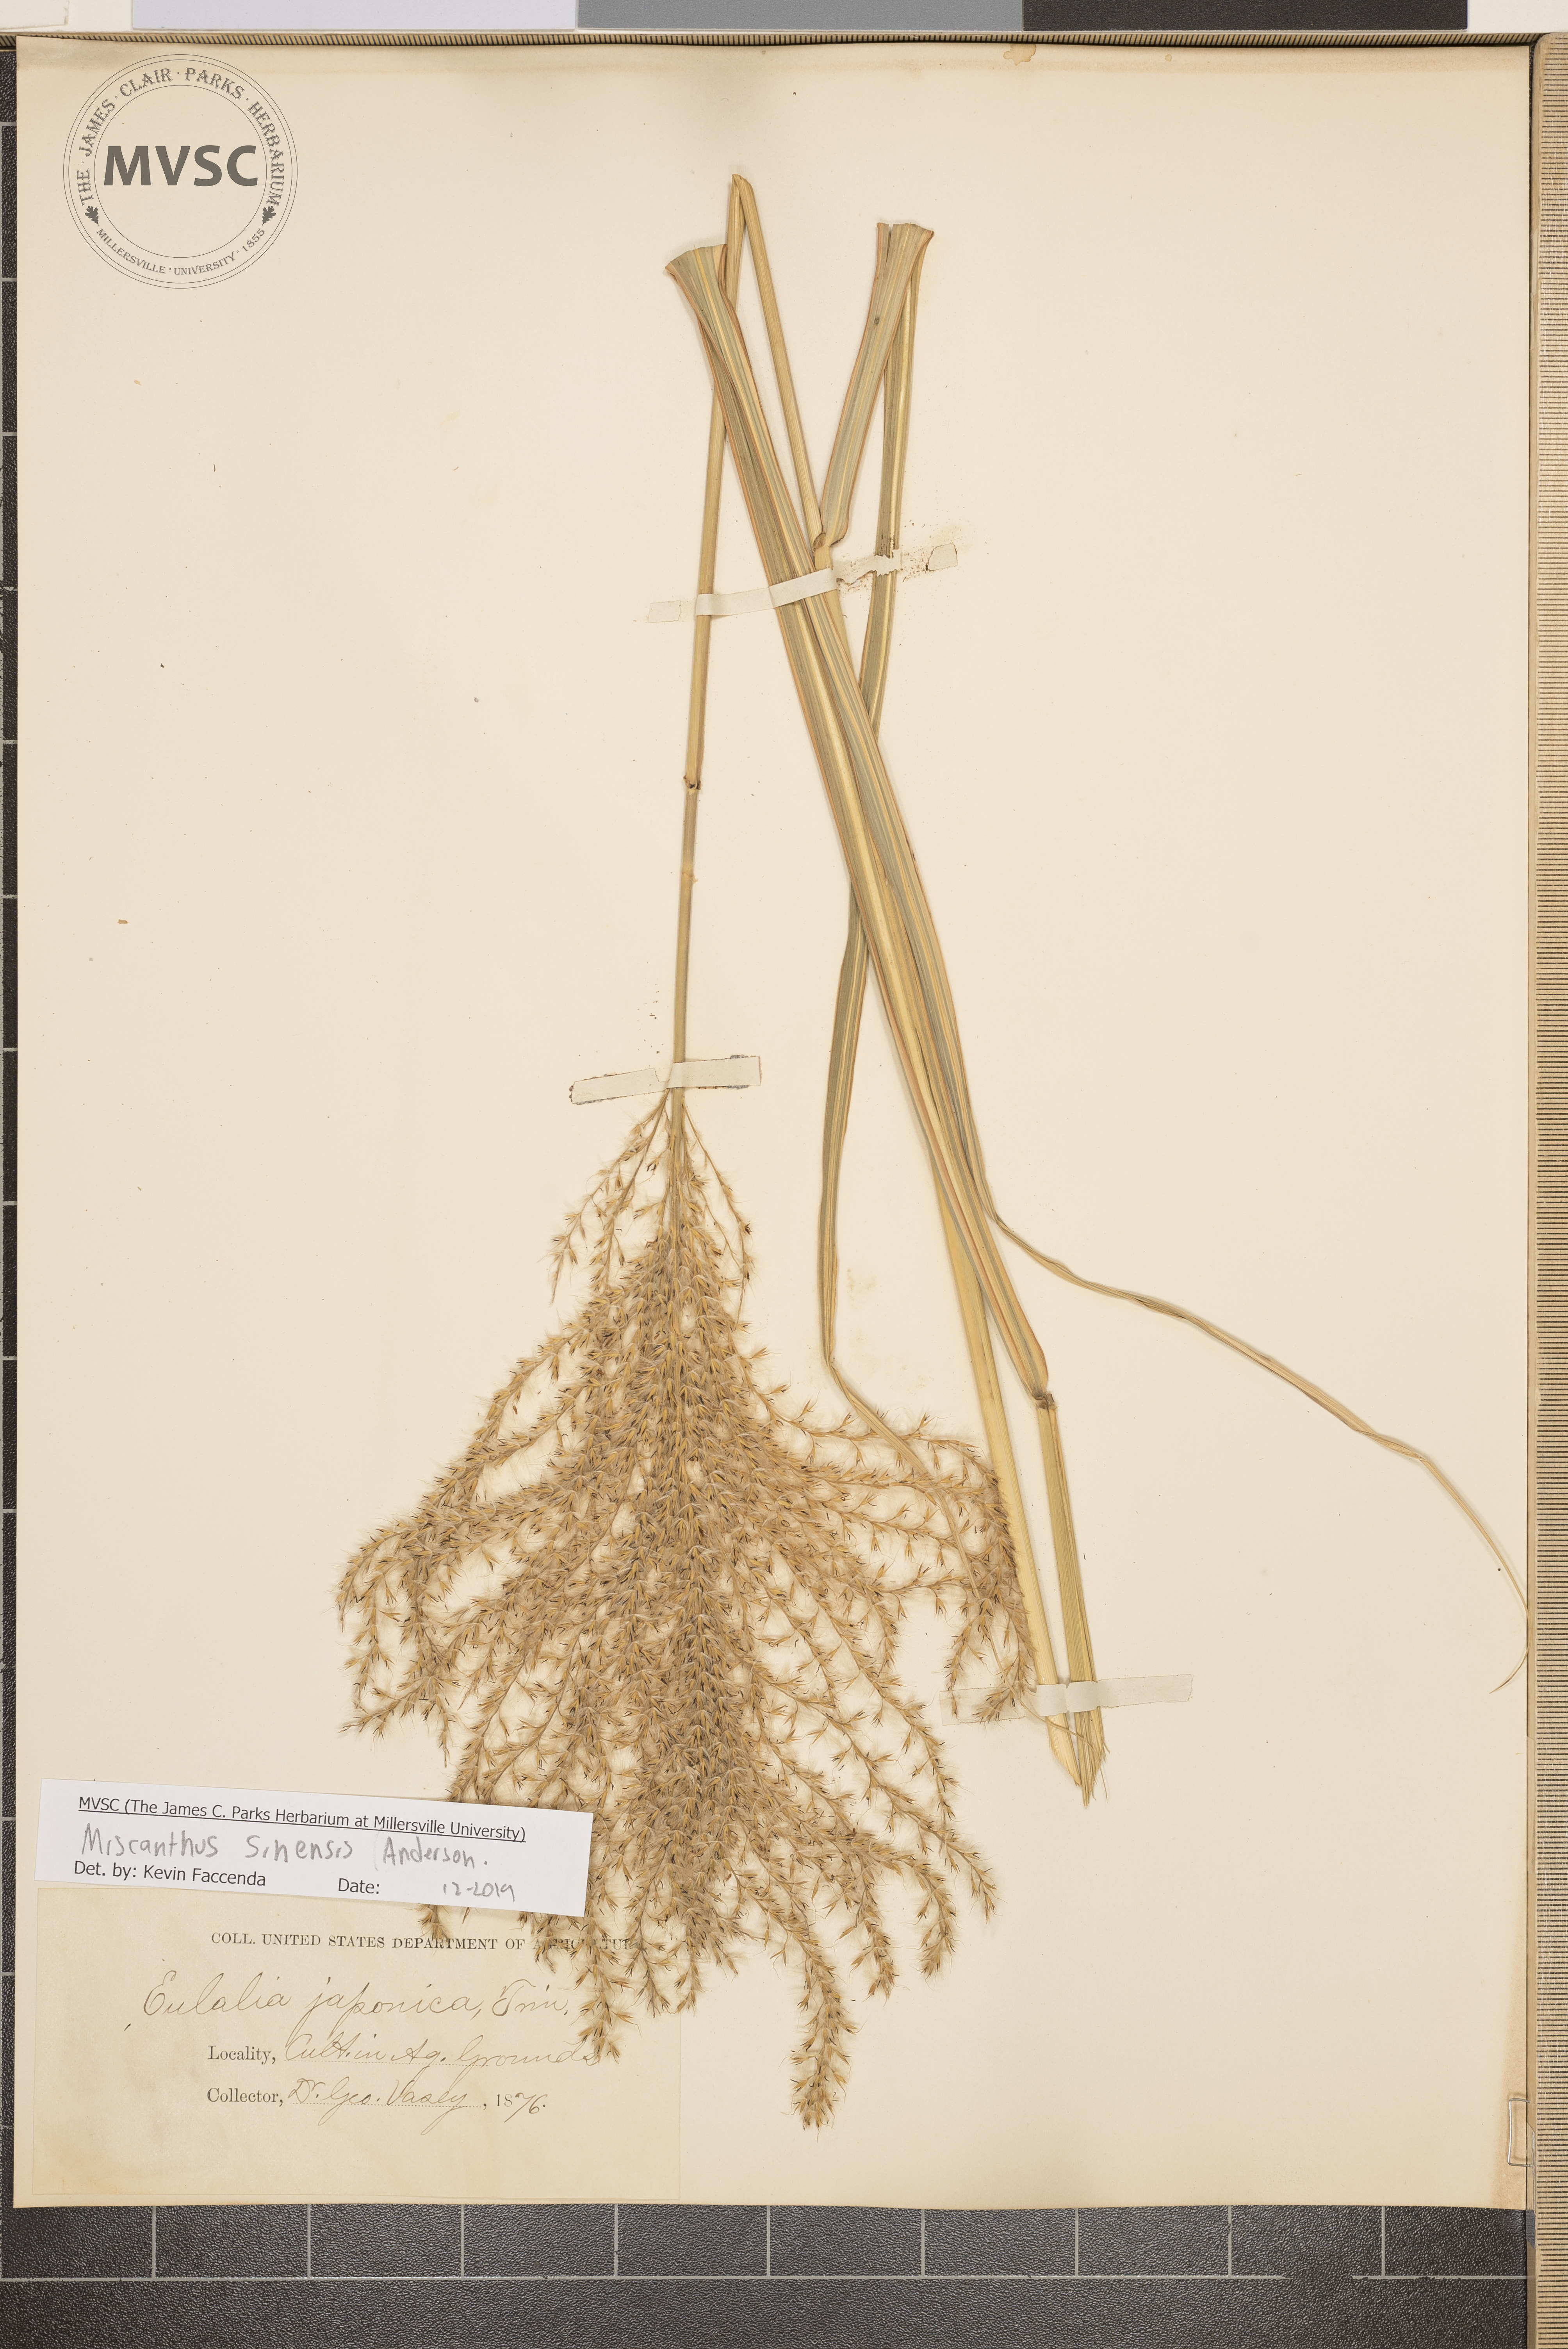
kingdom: Plantae
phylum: Tracheophyta
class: Liliopsida
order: Poales
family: Poaceae
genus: Miscanthus
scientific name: Miscanthus sinensis
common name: Chinese silvergrass
